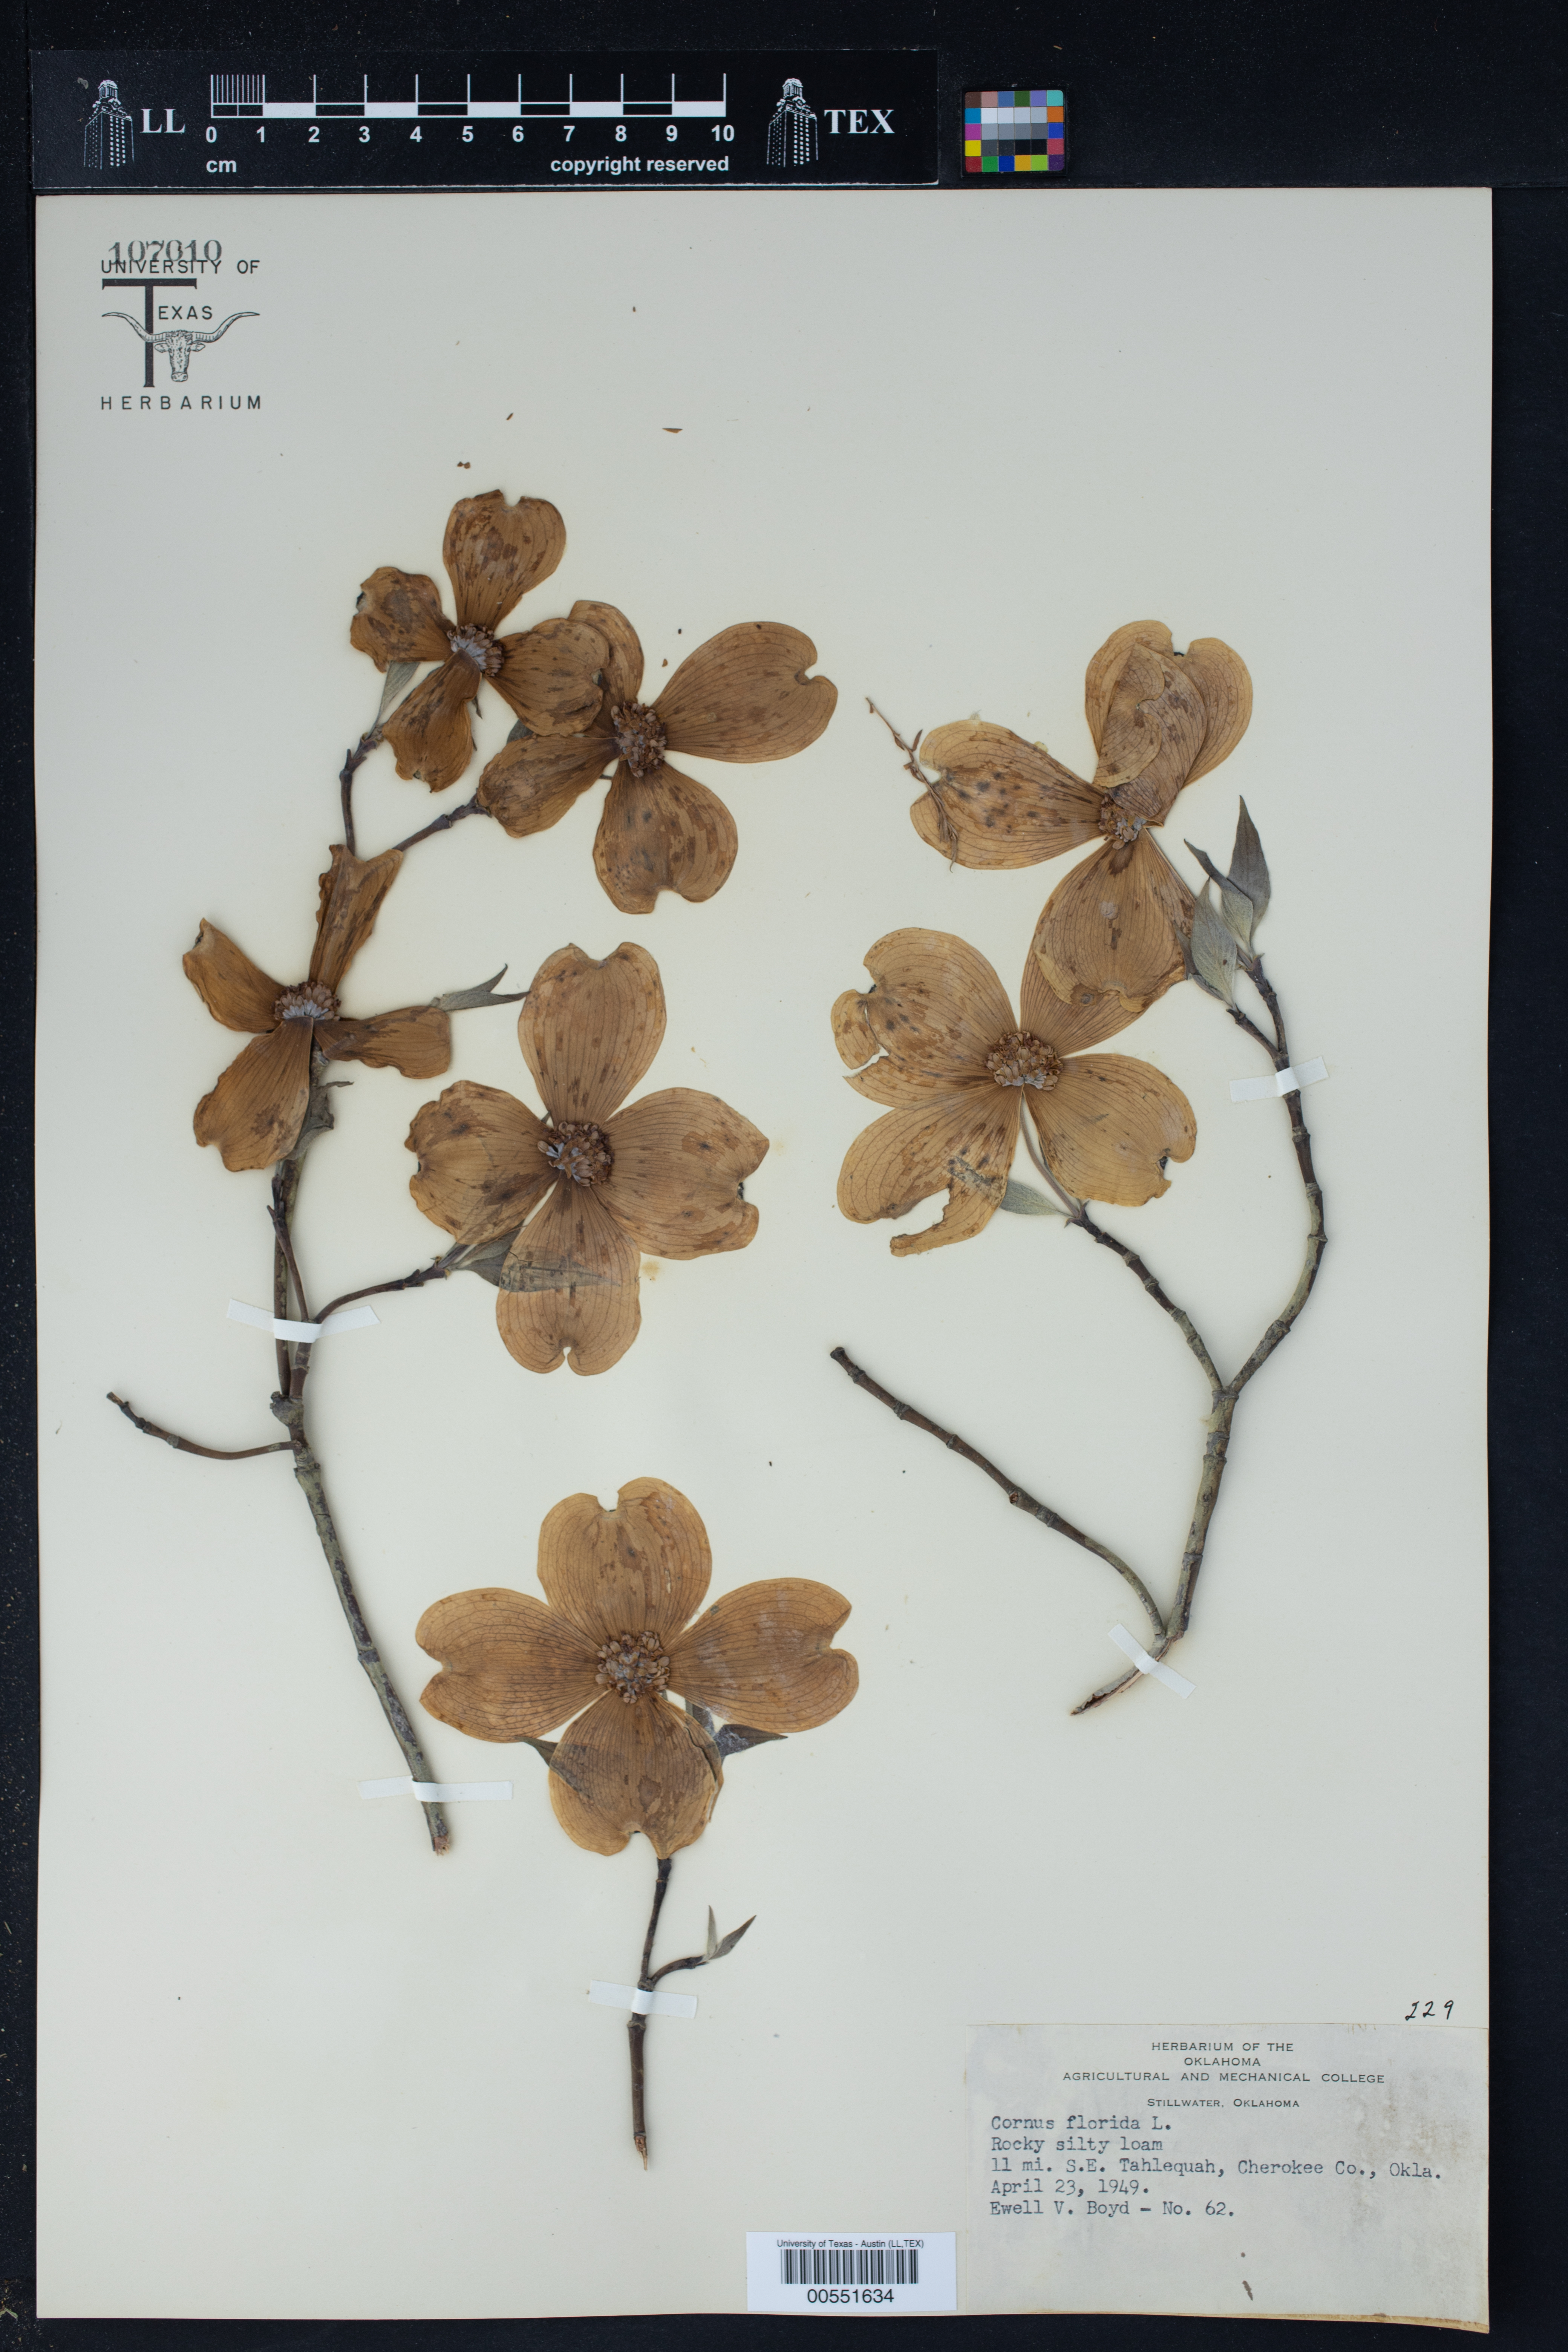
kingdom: Plantae
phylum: Tracheophyta
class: Magnoliopsida
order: Cornales
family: Cornaceae
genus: Cornus
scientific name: Cornus florida
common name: Flowering dogwood
